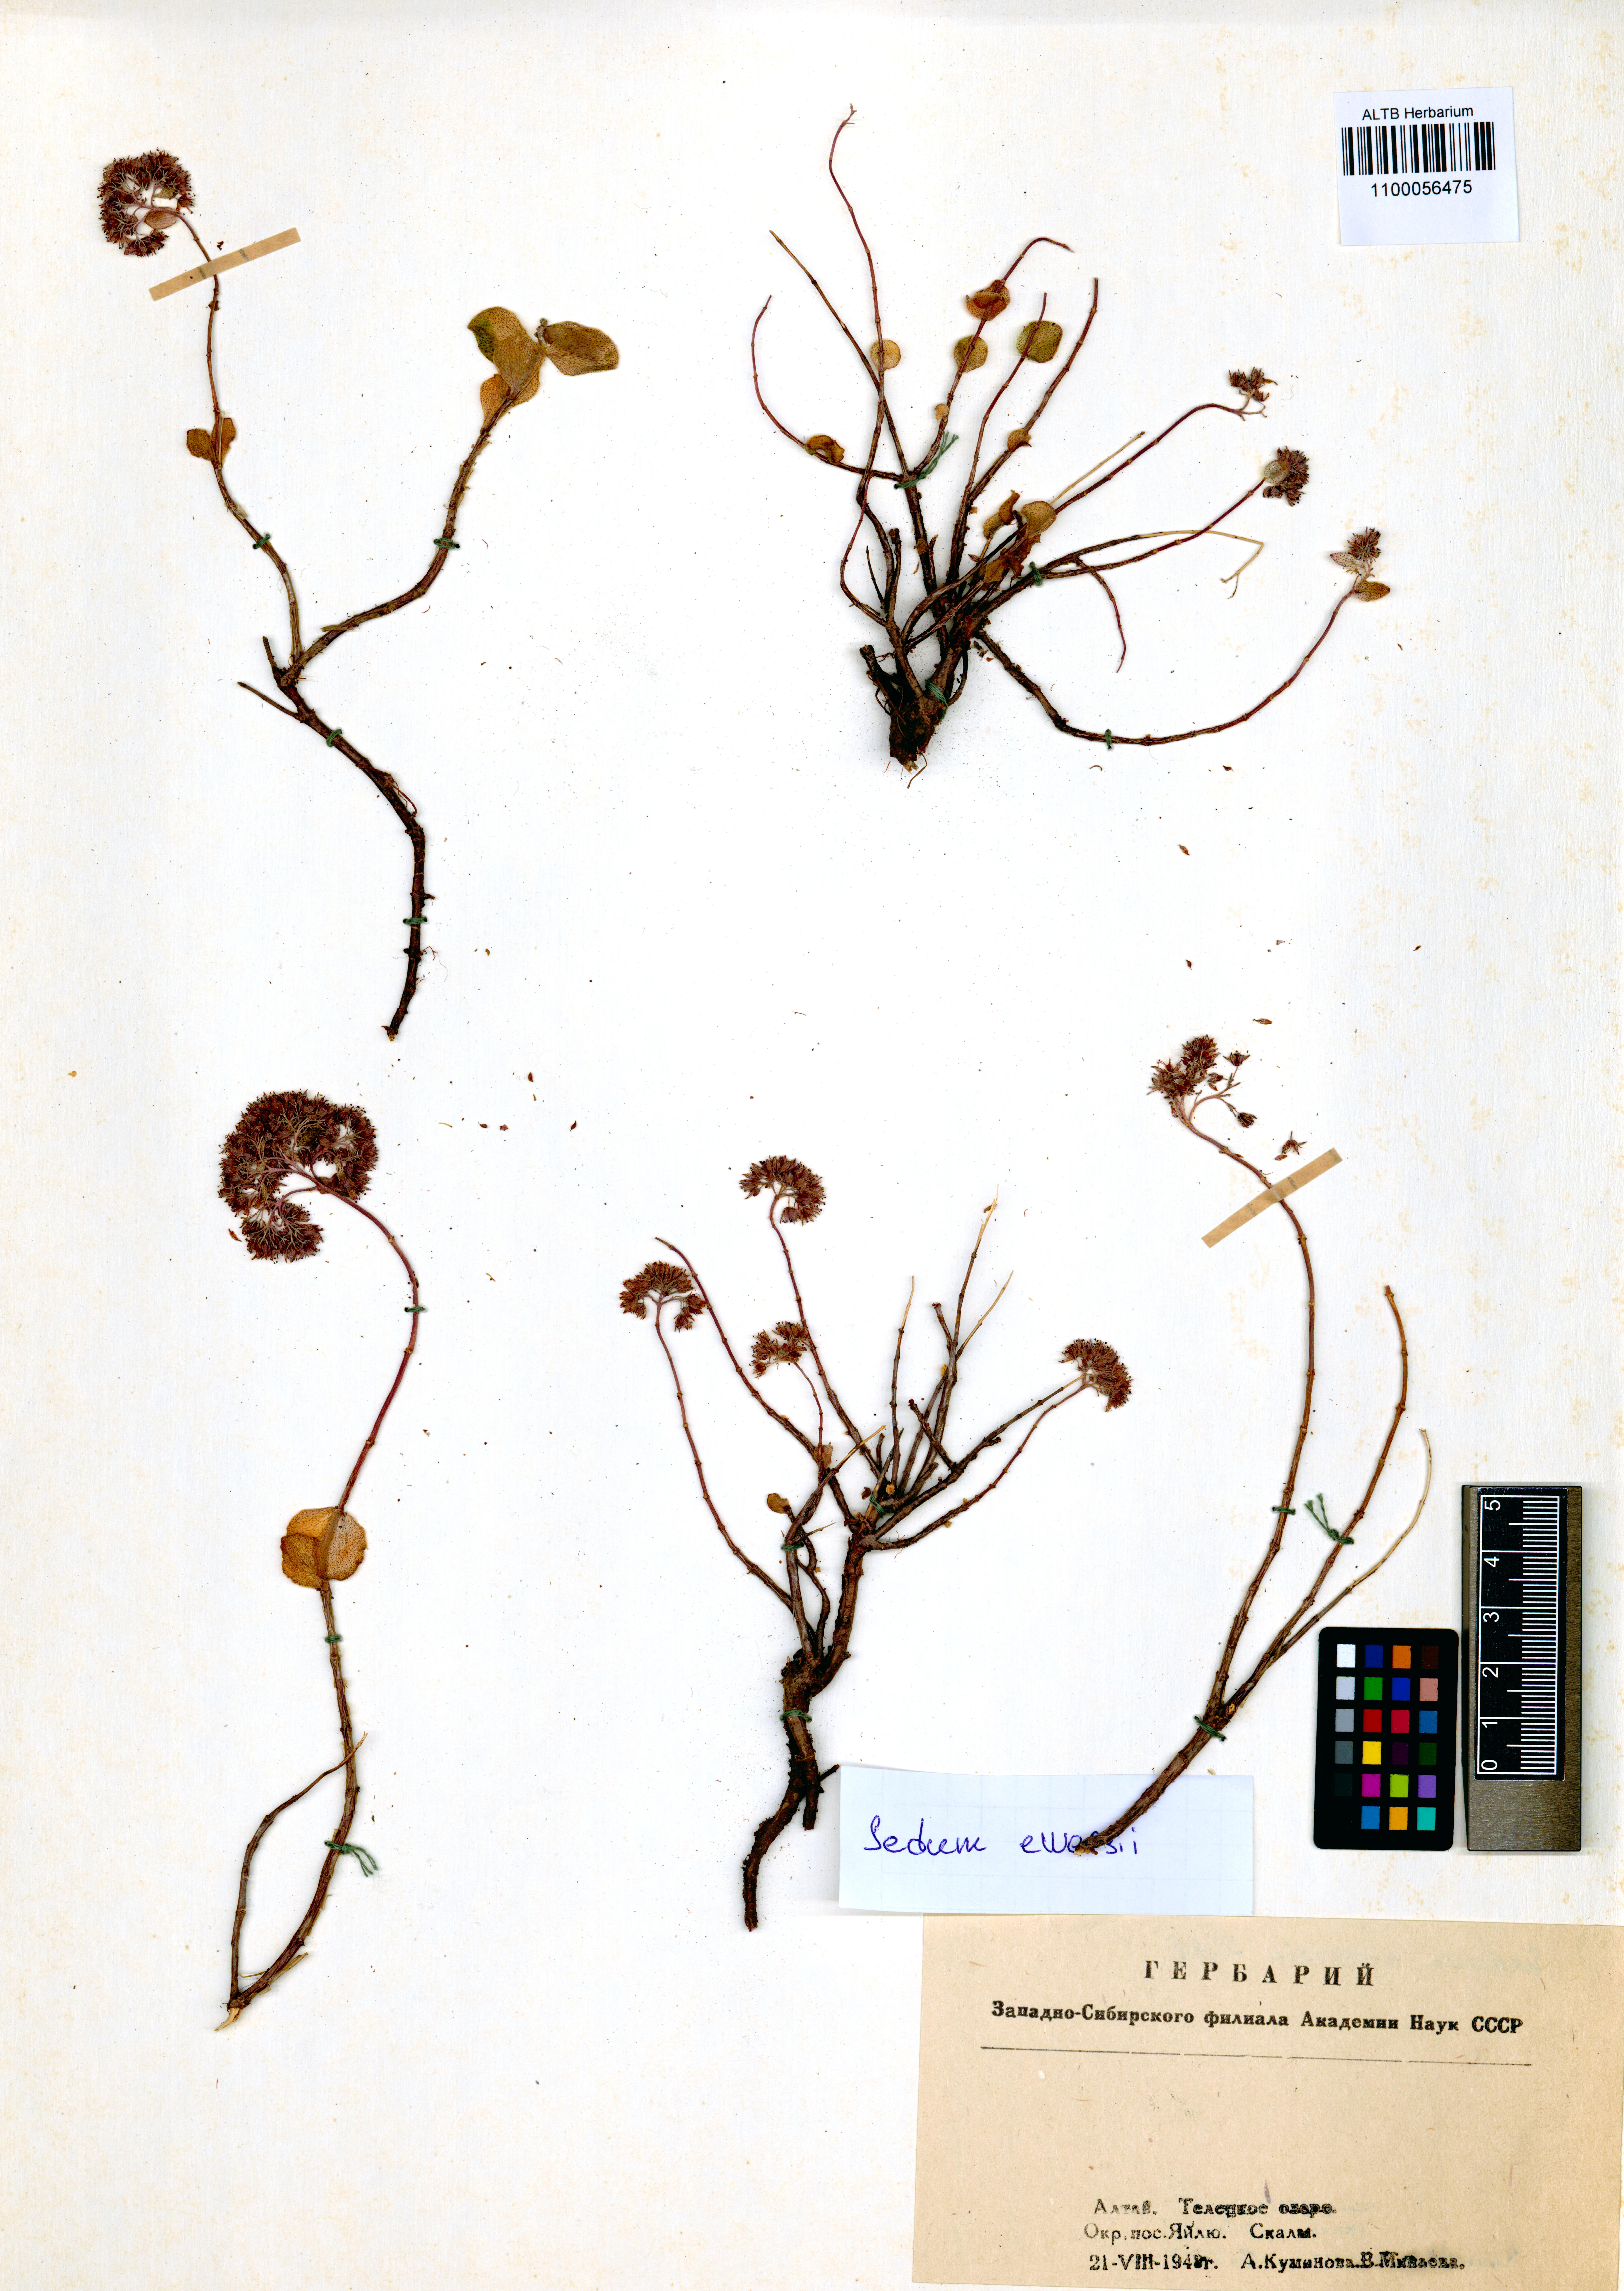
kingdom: Plantae
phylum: Tracheophyta
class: Magnoliopsida
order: Saxifragales
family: Crassulaceae
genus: Hylotelephium
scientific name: Hylotelephium ewersii
